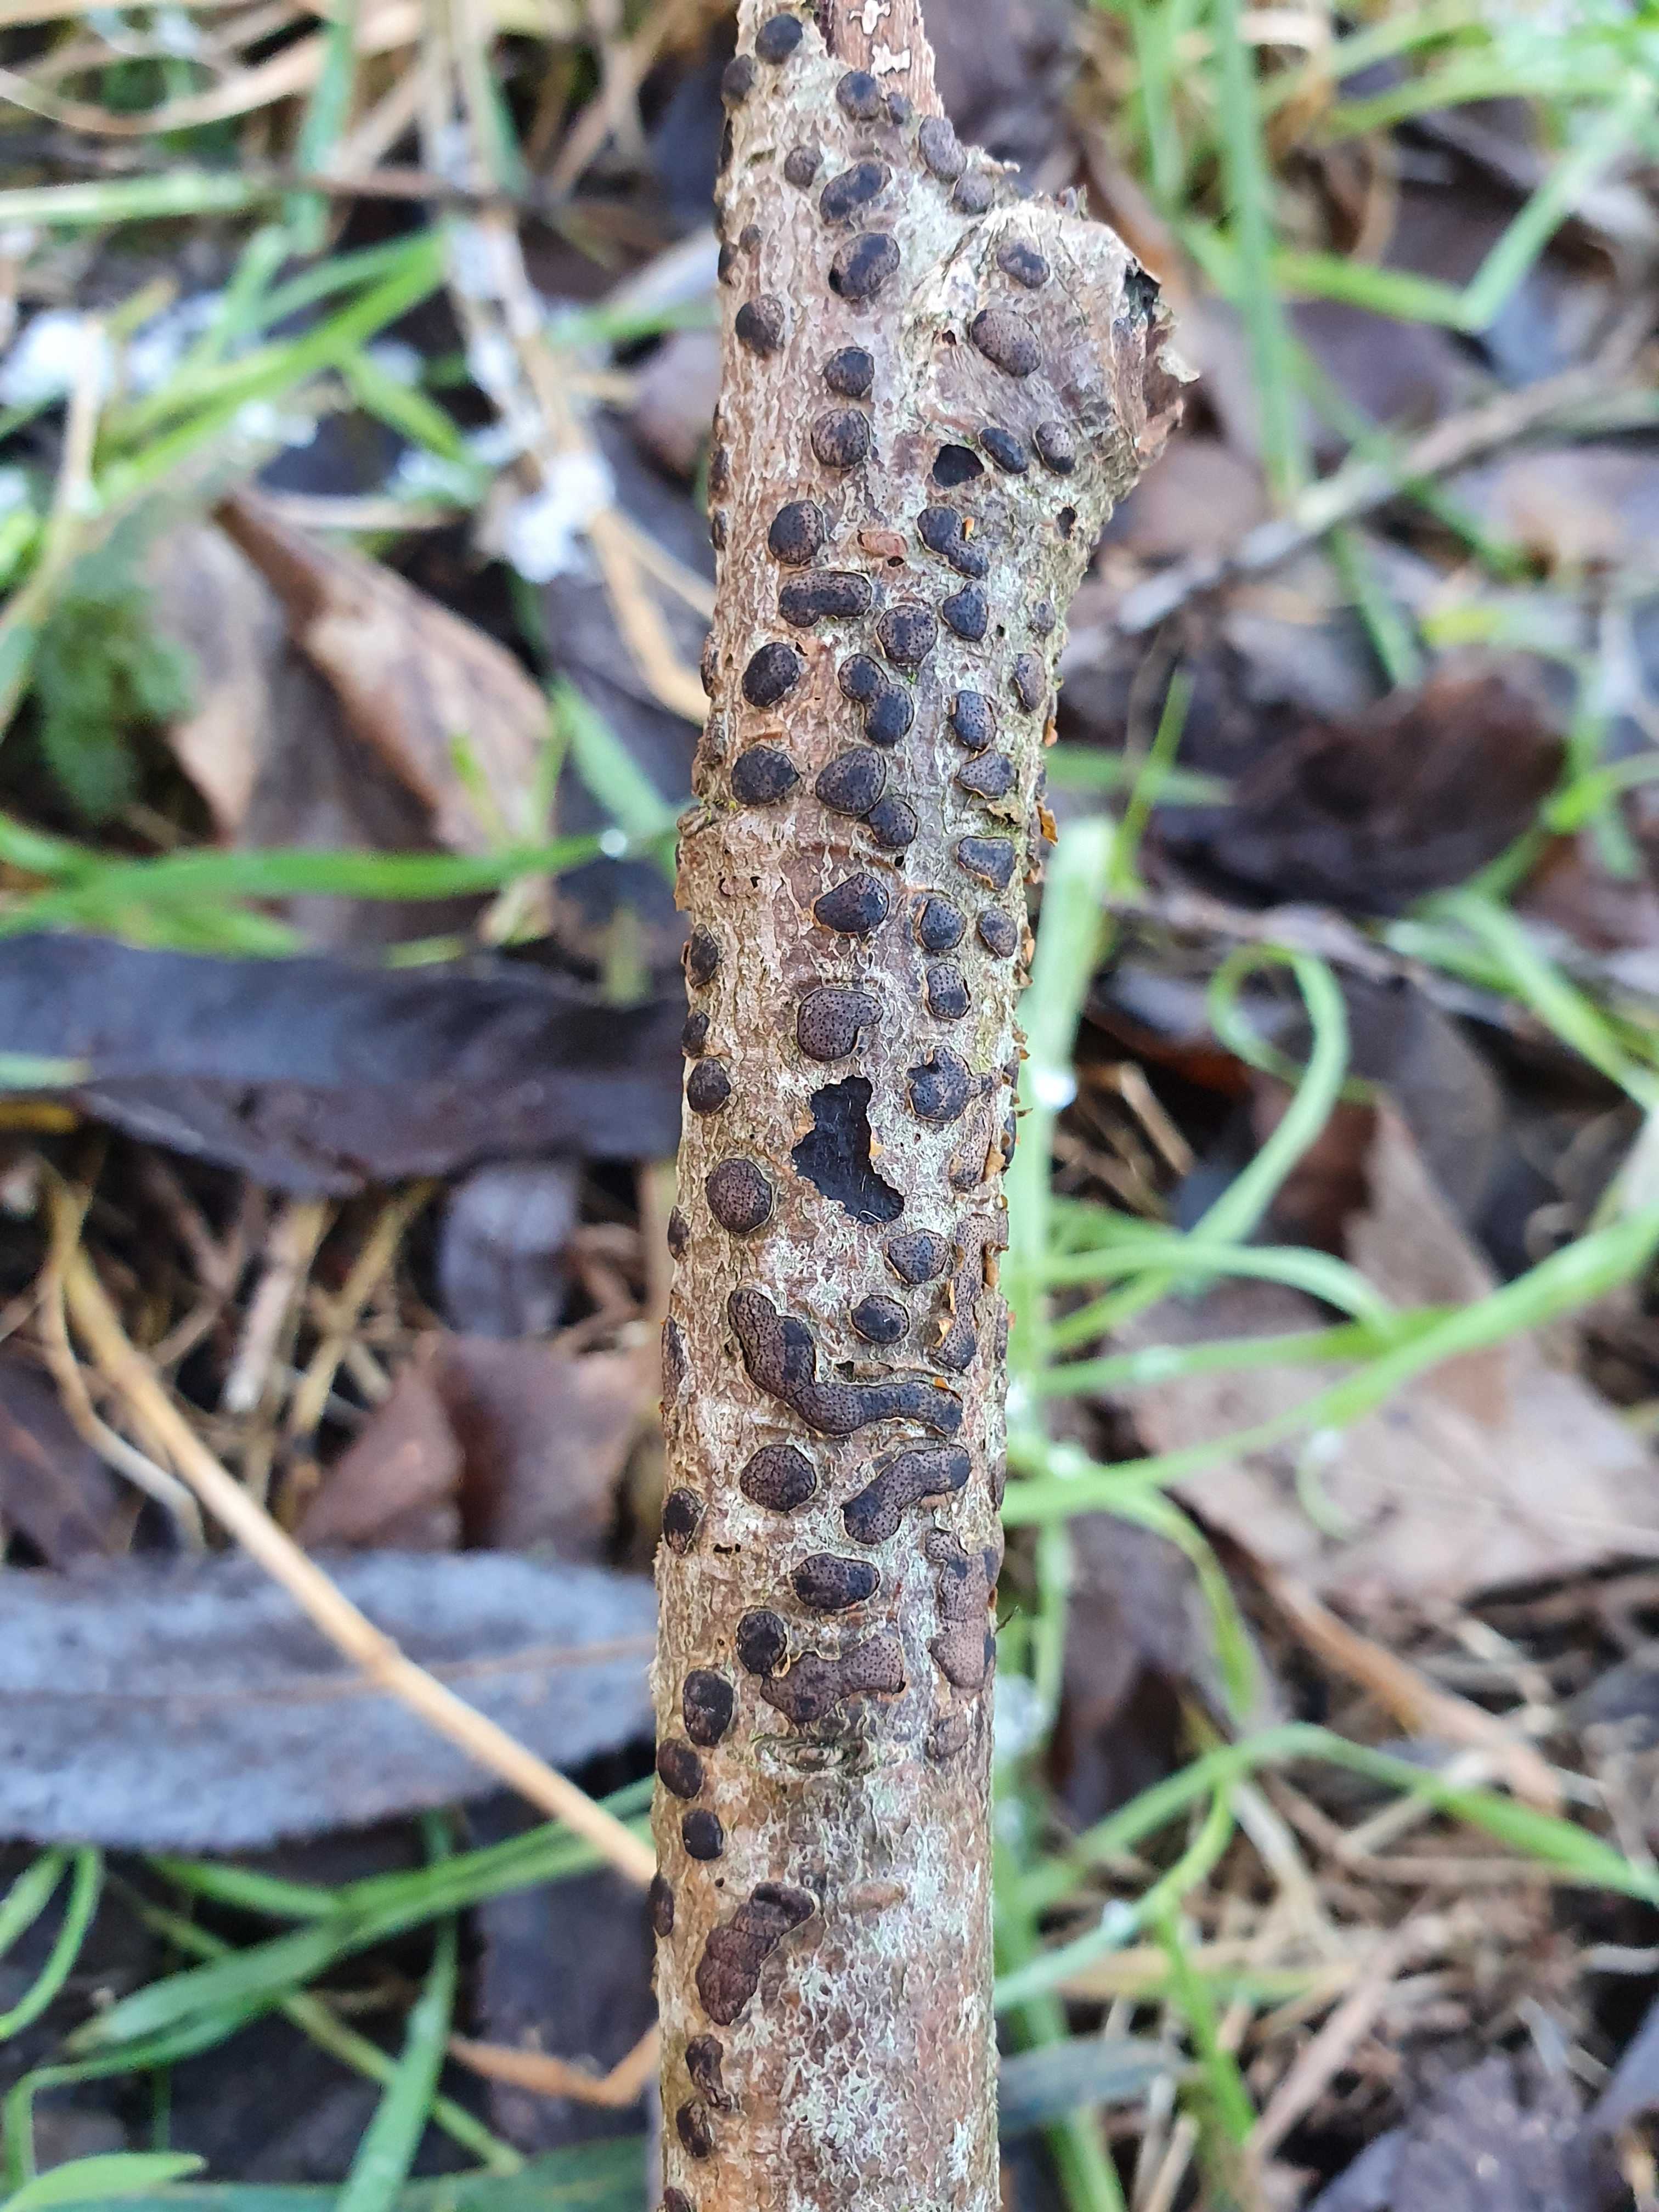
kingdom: Fungi
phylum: Ascomycota
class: Sordariomycetes
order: Xylariales
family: Diatrypaceae
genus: Diatrype
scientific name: Diatrype bullata
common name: pile-kulskorpe
